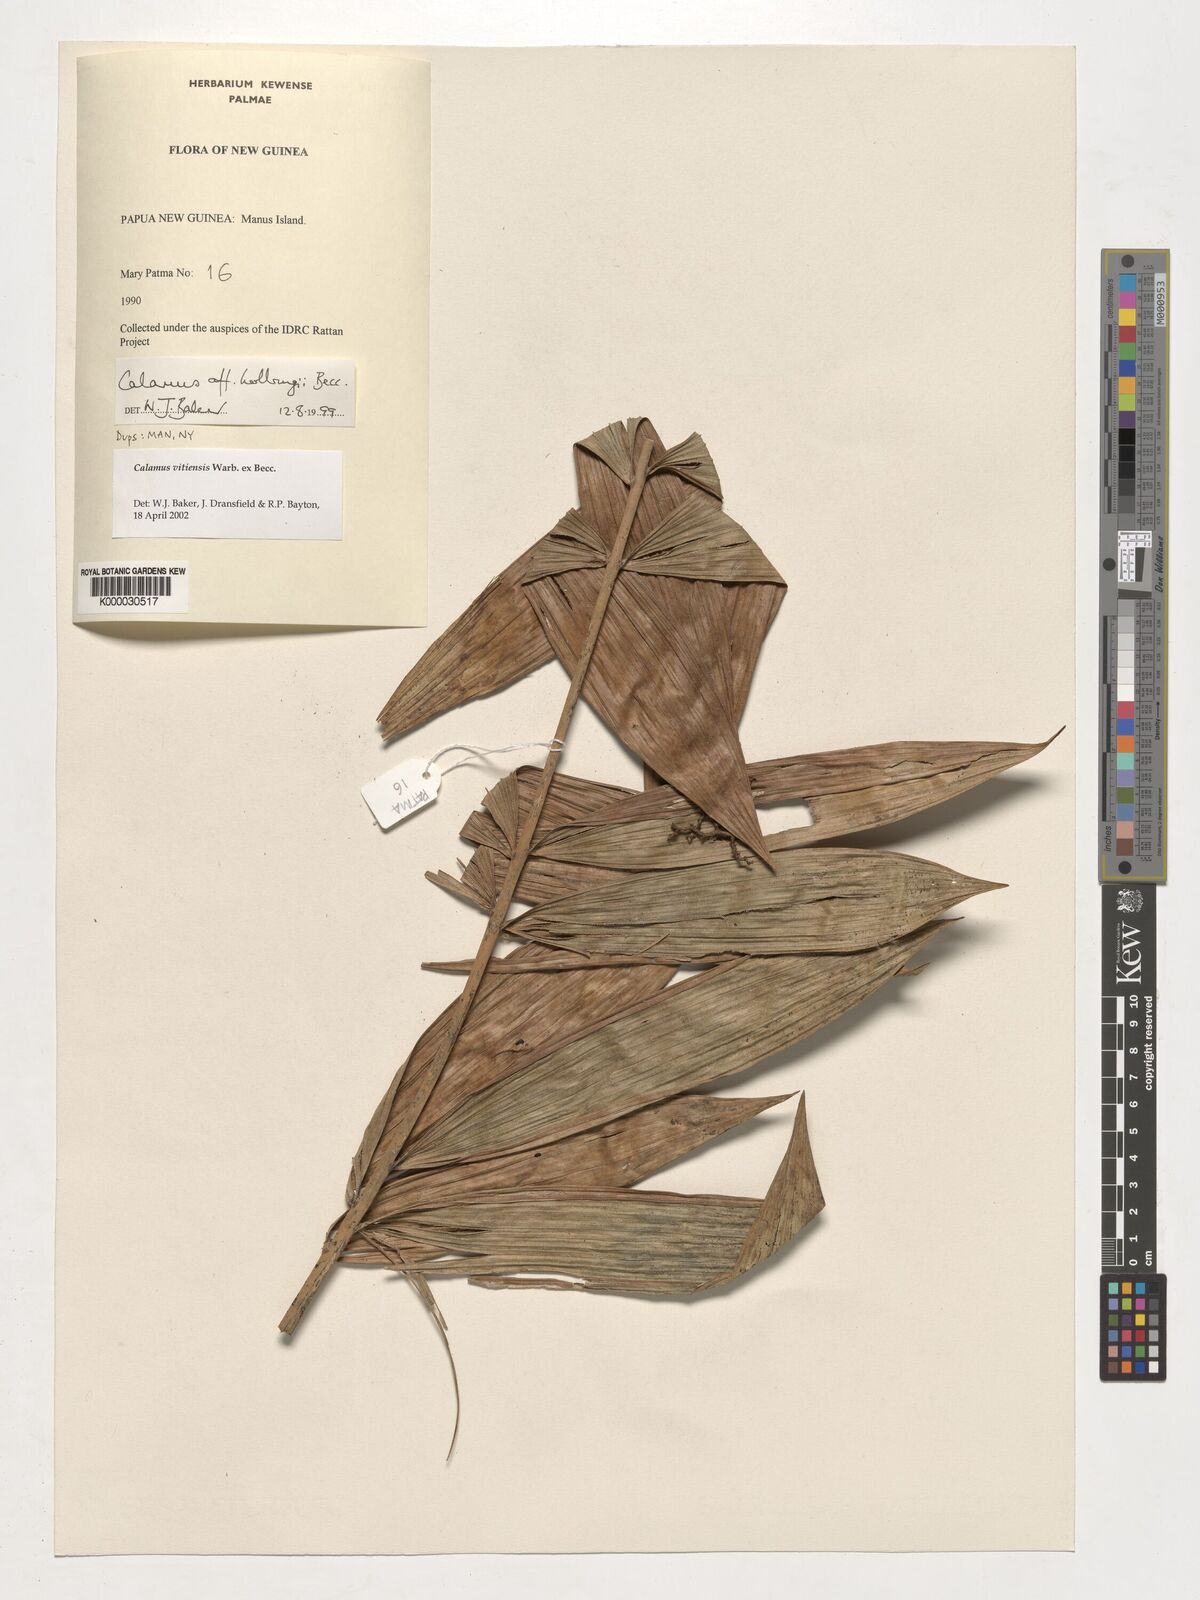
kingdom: Plantae
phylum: Tracheophyta
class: Liliopsida
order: Arecales
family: Arecaceae
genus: Calamus
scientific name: Calamus vitiensis
